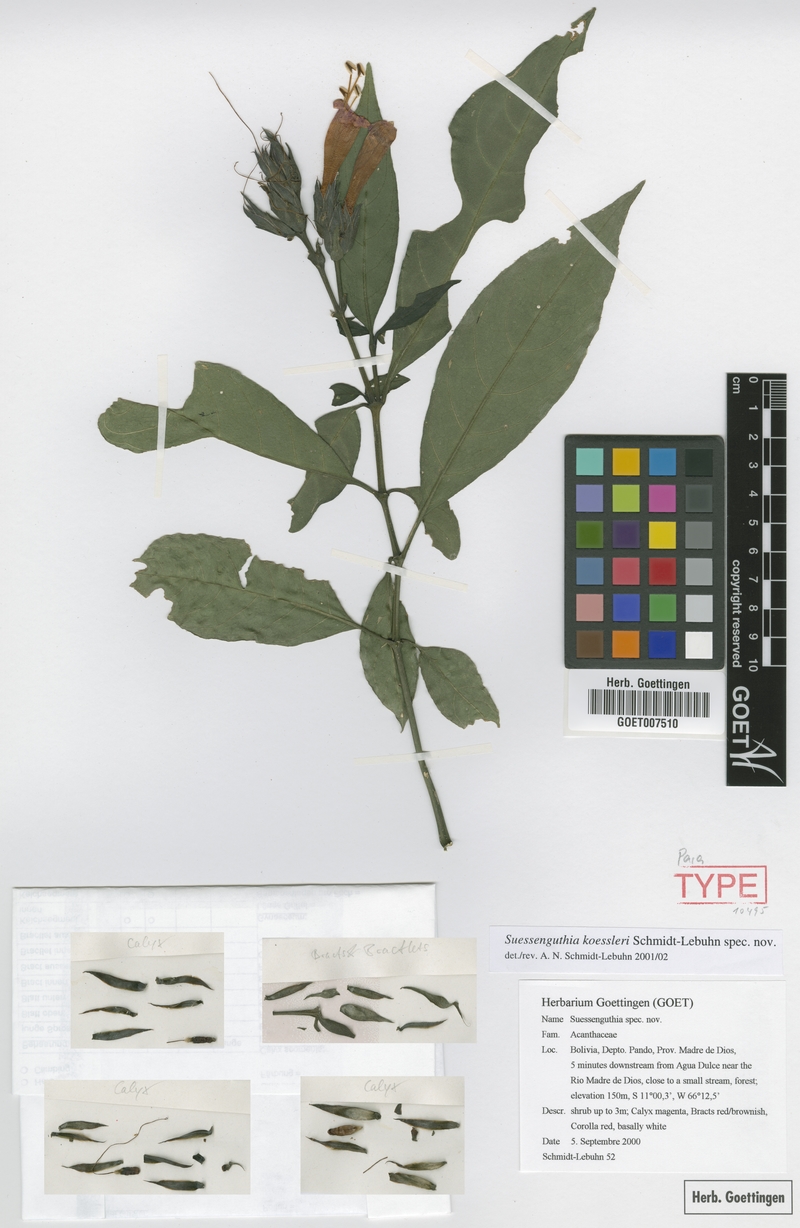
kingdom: Plantae
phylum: Tracheophyta
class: Magnoliopsida
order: Lamiales
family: Acanthaceae
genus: Suessenguthia
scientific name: Suessenguthia koessleri
